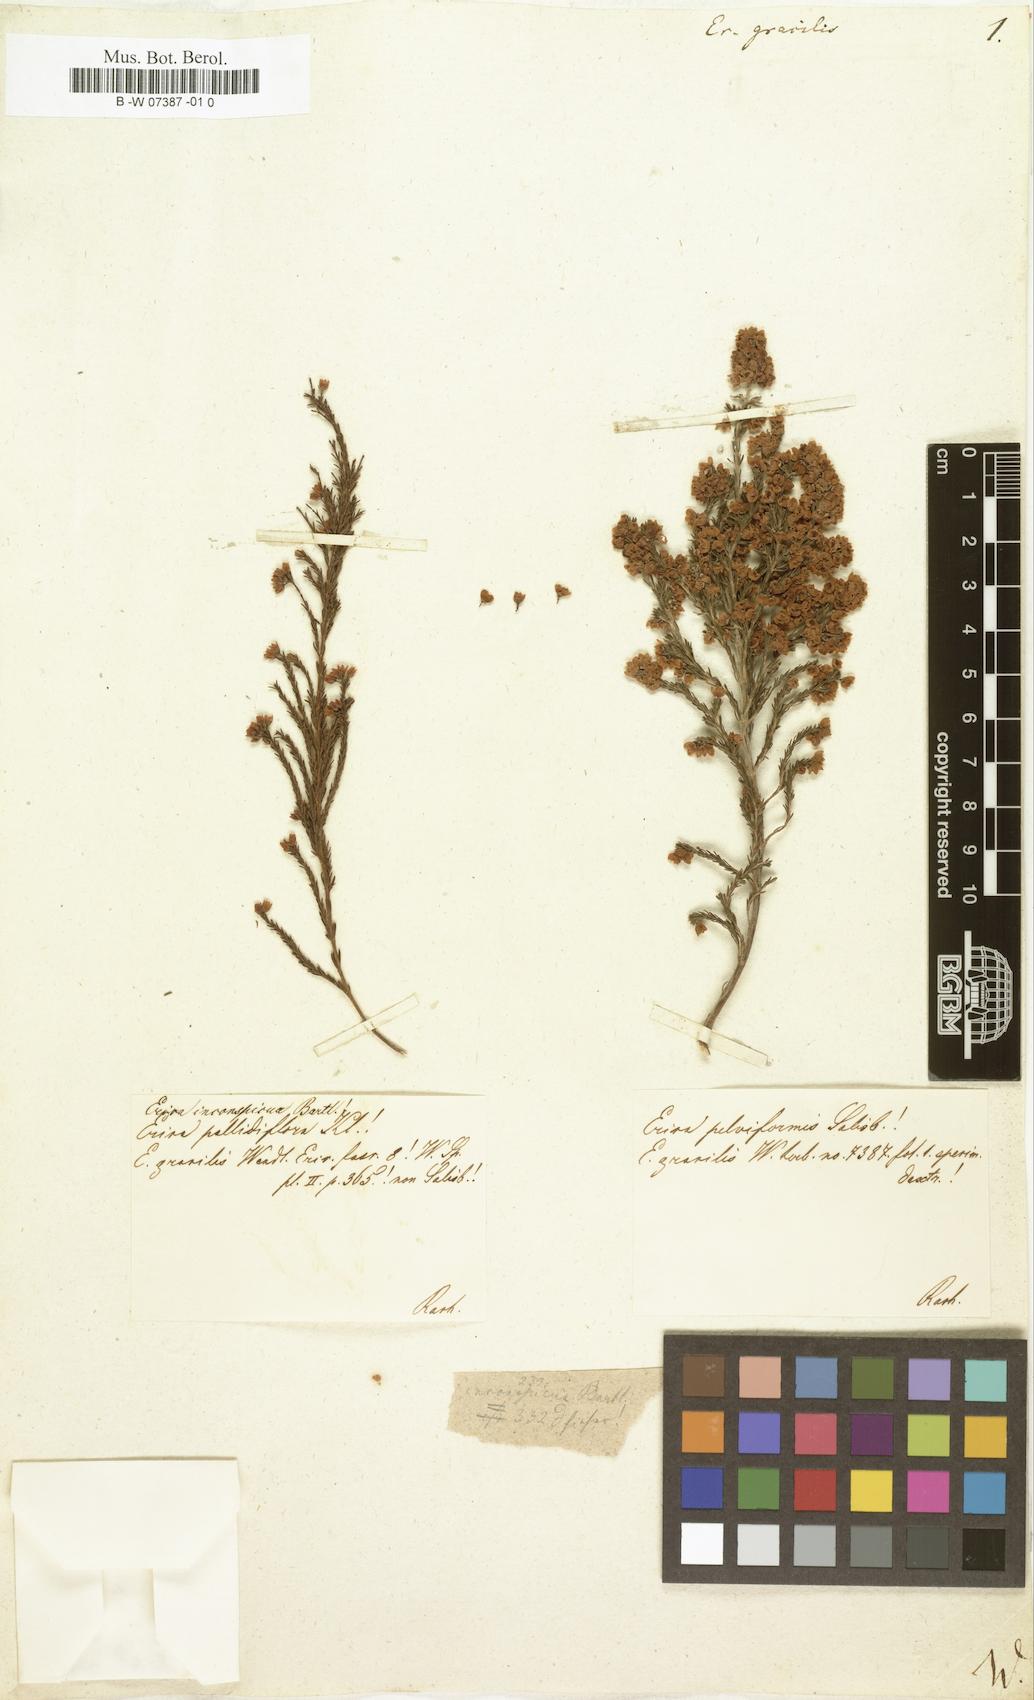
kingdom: Plantae
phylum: Tracheophyta
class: Magnoliopsida
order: Ericales
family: Ericaceae
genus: Erica
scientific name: Erica gracilis
